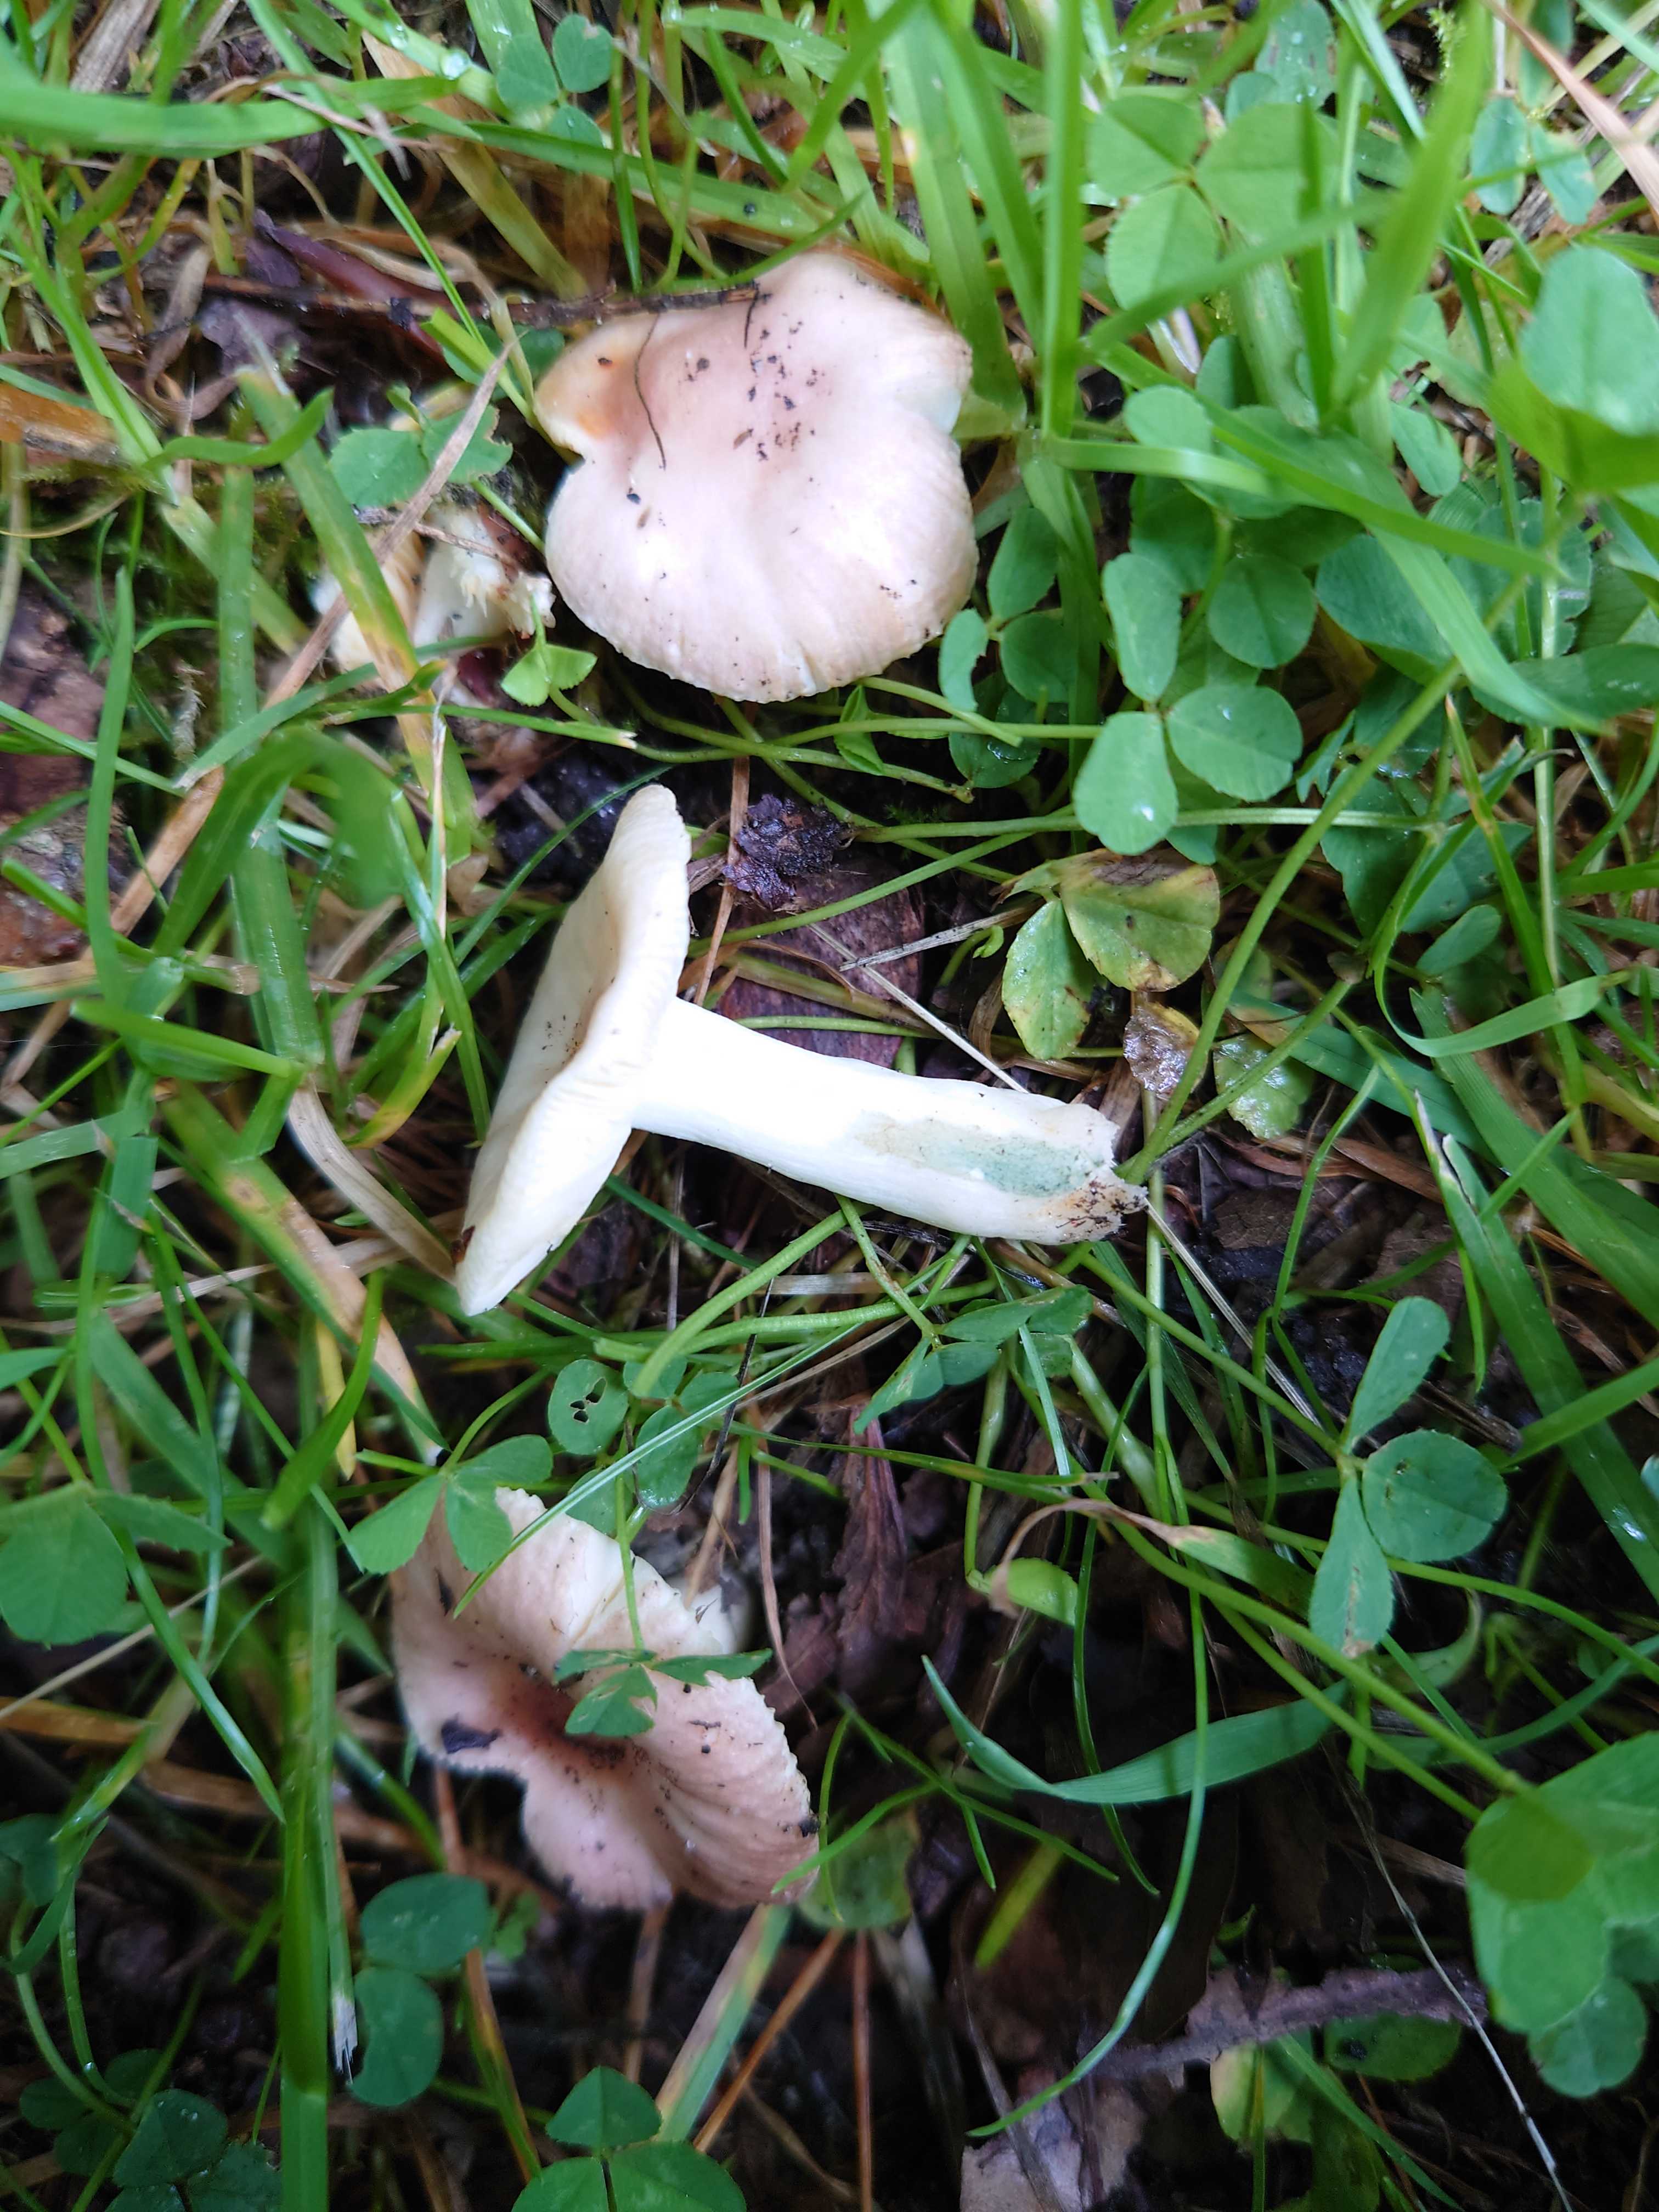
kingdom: Fungi
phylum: Basidiomycota
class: Agaricomycetes
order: Russulales
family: Russulaceae
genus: Russula
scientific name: Russula odorata
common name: duft-skørhat
